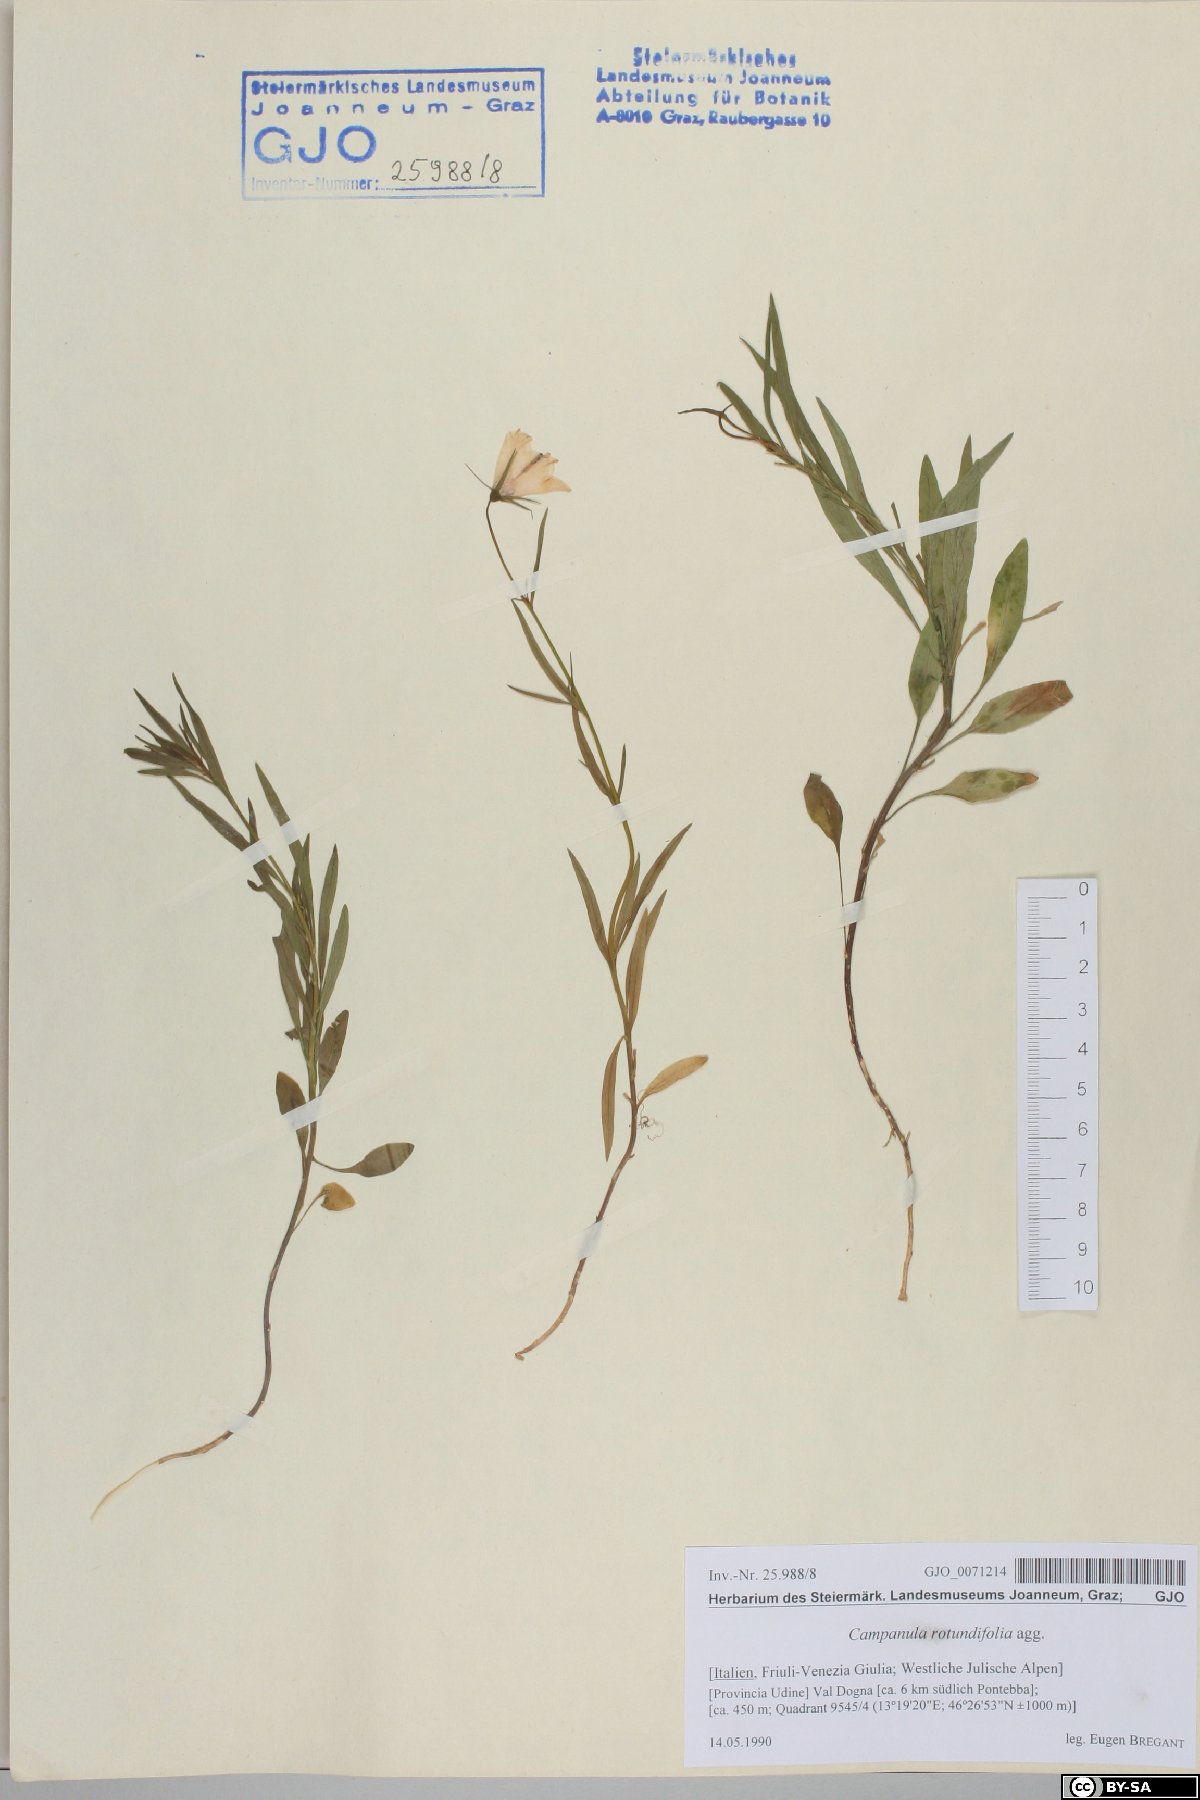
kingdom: Plantae
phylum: Tracheophyta
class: Magnoliopsida
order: Asterales
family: Campanulaceae
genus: Campanula
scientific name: Campanula rotundifolia
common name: Harebell
